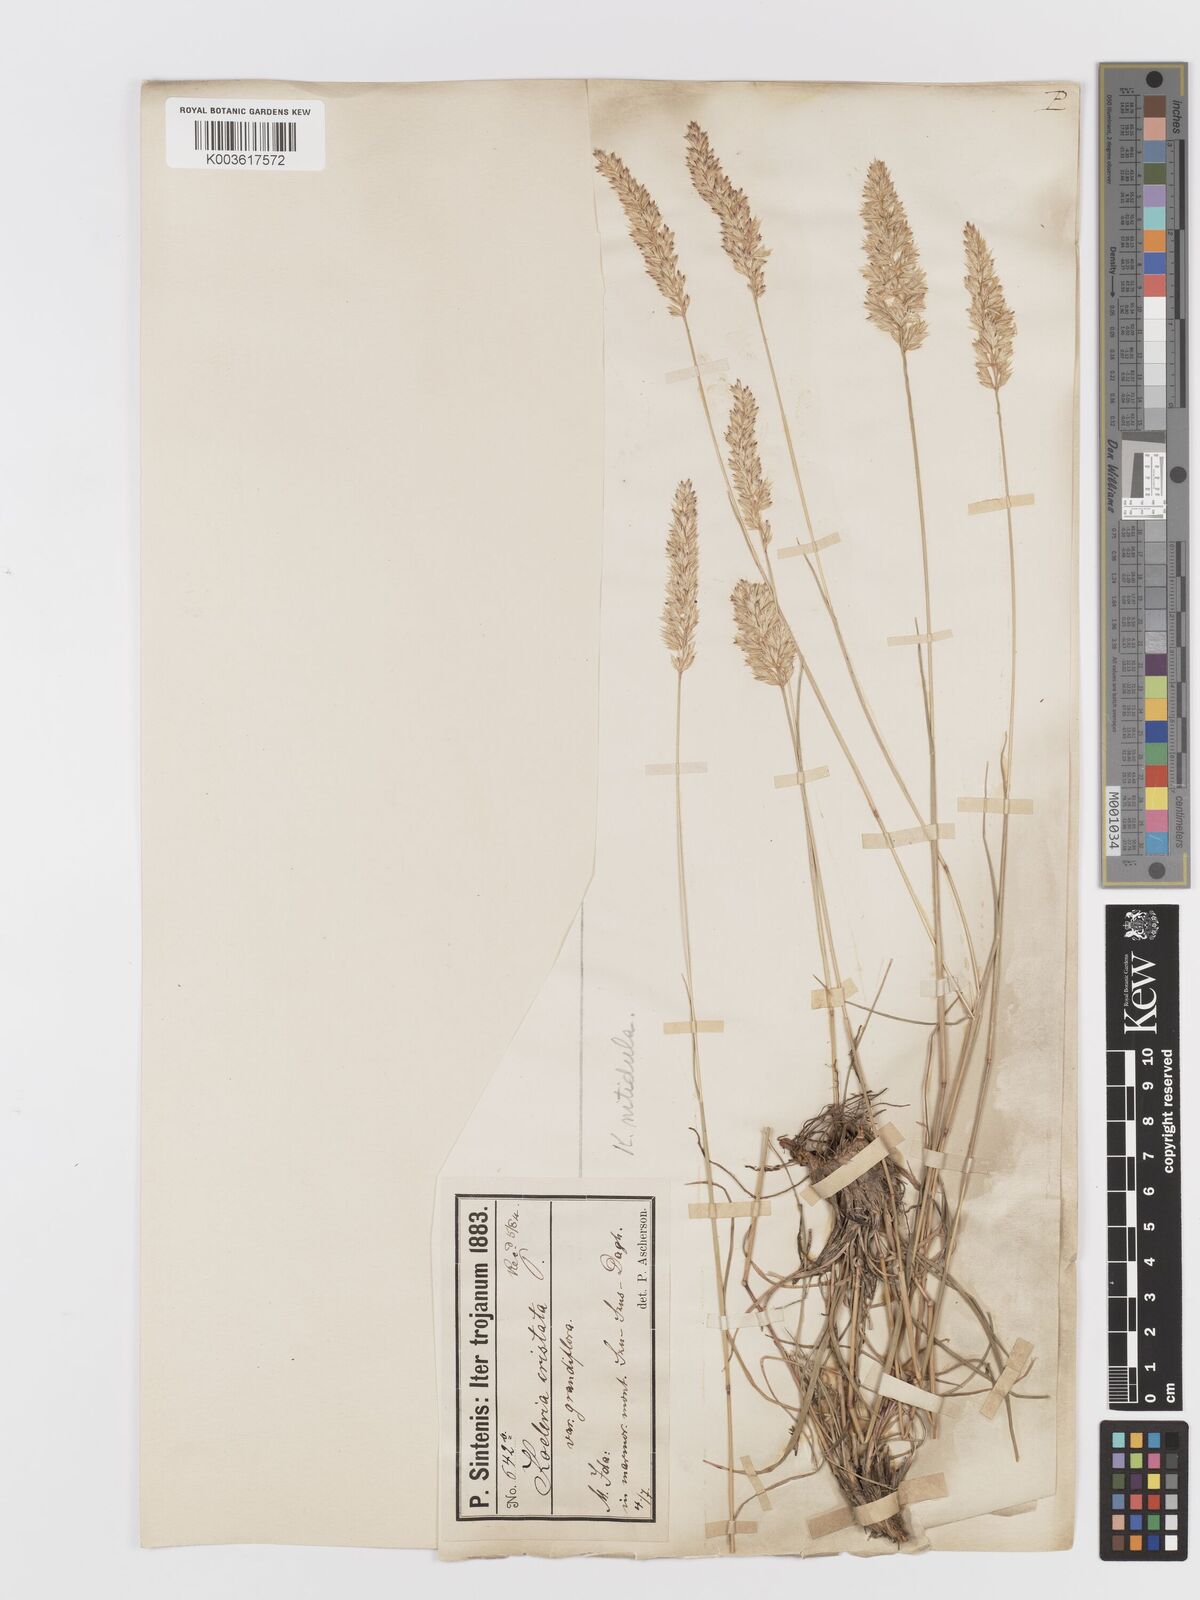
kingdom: Plantae
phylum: Tracheophyta
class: Liliopsida
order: Poales
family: Poaceae
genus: Koeleria
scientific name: Koeleria nitidula
